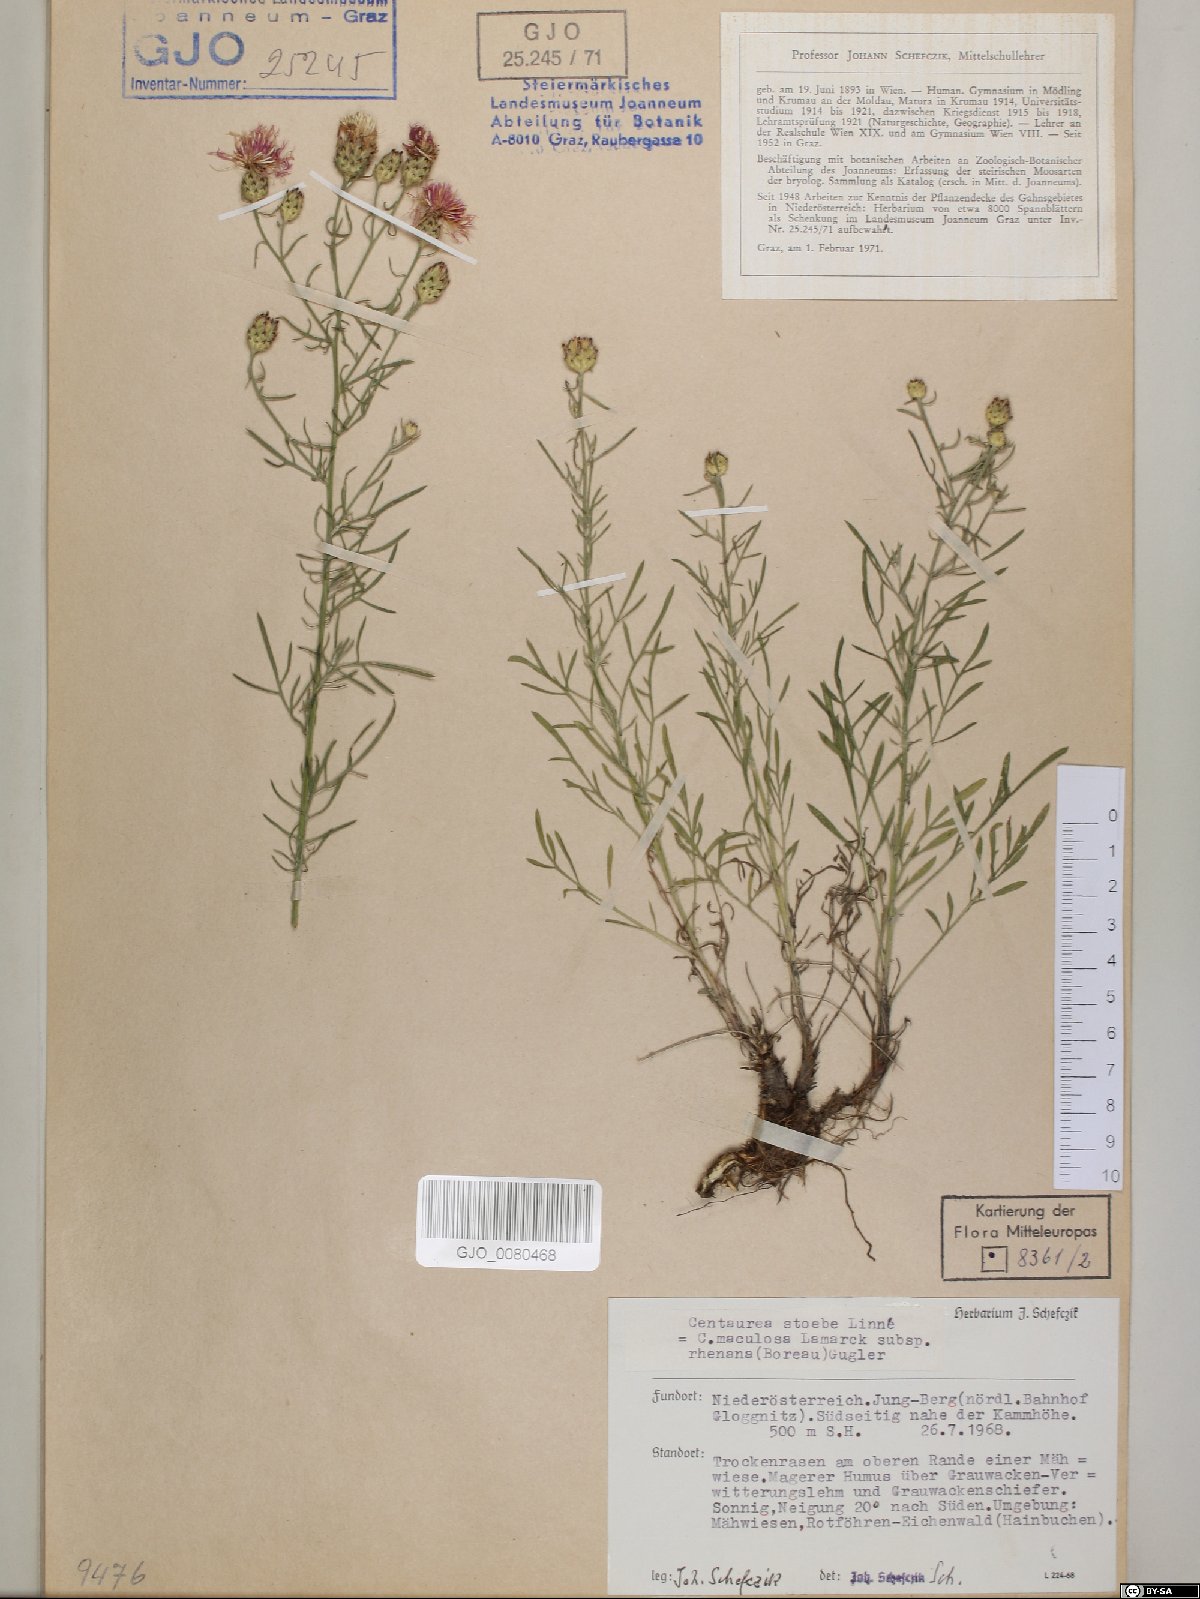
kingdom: Plantae
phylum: Tracheophyta
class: Magnoliopsida
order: Asterales
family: Asteraceae
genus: Centaurea
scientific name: Centaurea stoebe
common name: Spotted knapweed
